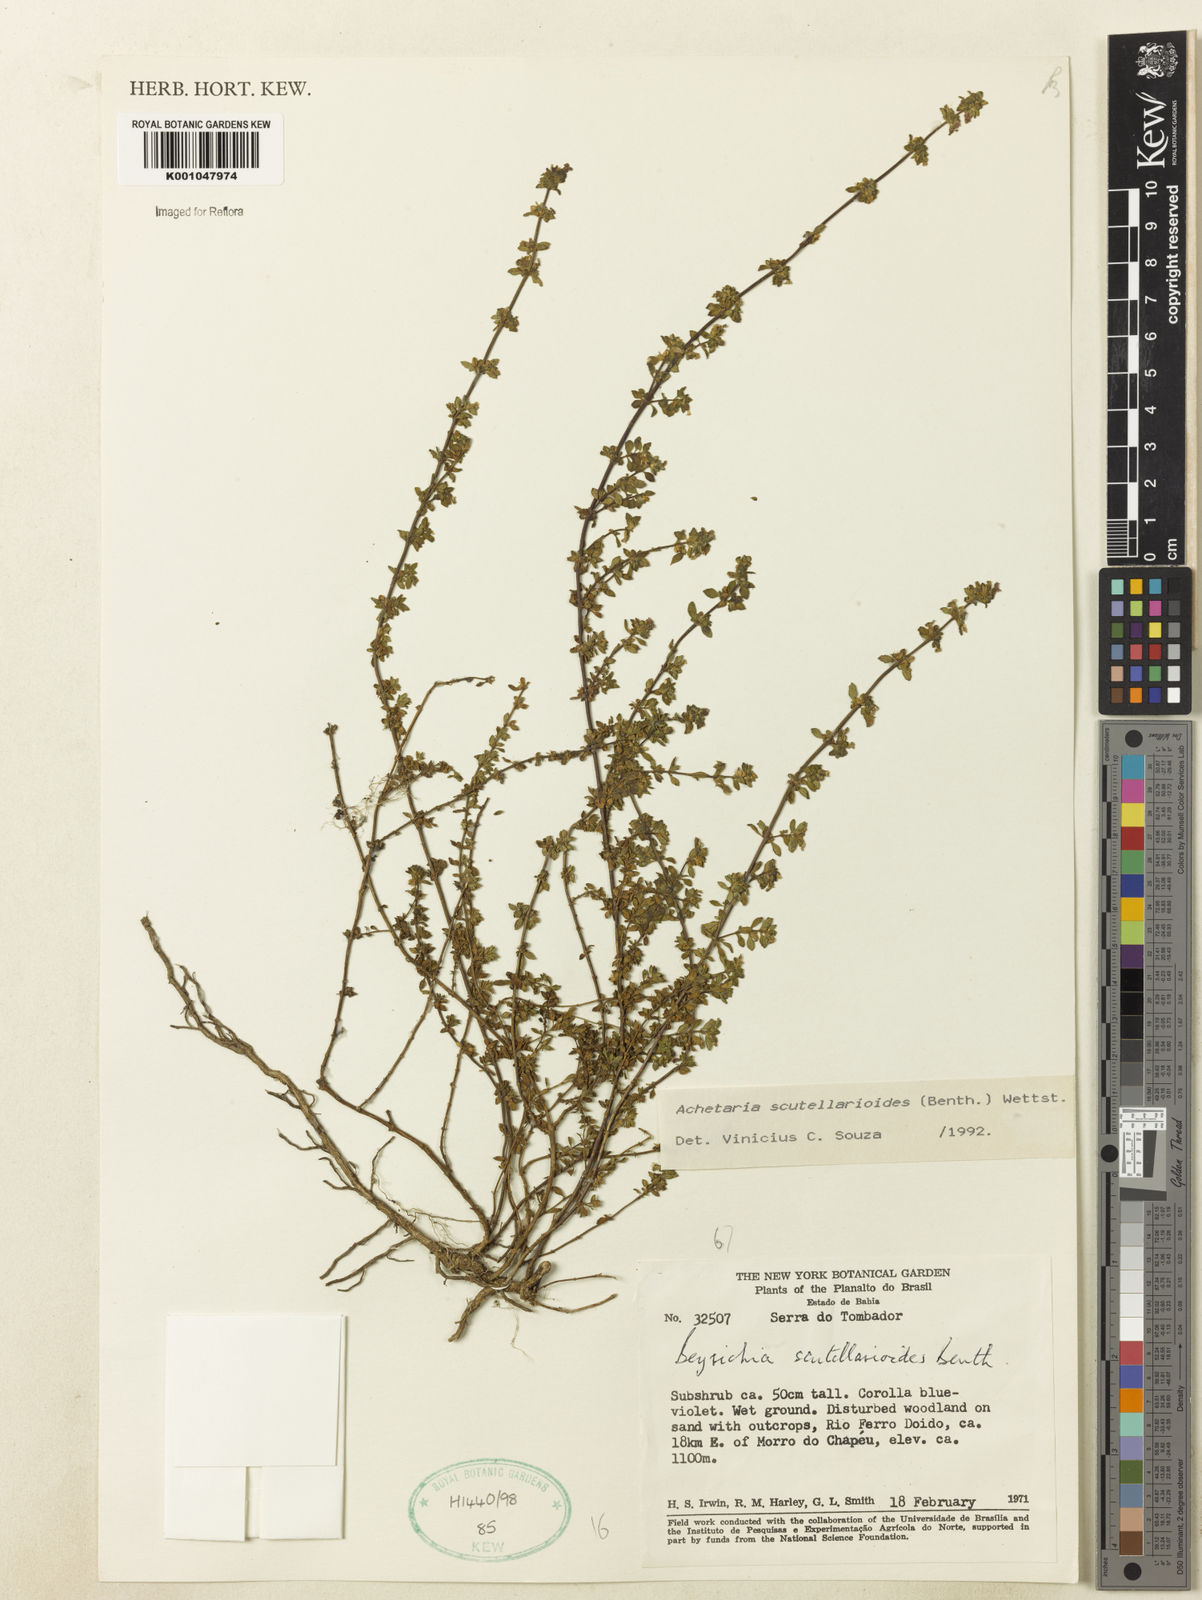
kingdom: Plantae
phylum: Tracheophyta
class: Magnoliopsida
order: Lamiales
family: Plantaginaceae
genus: Matourea
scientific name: Matourea scutellarioides
